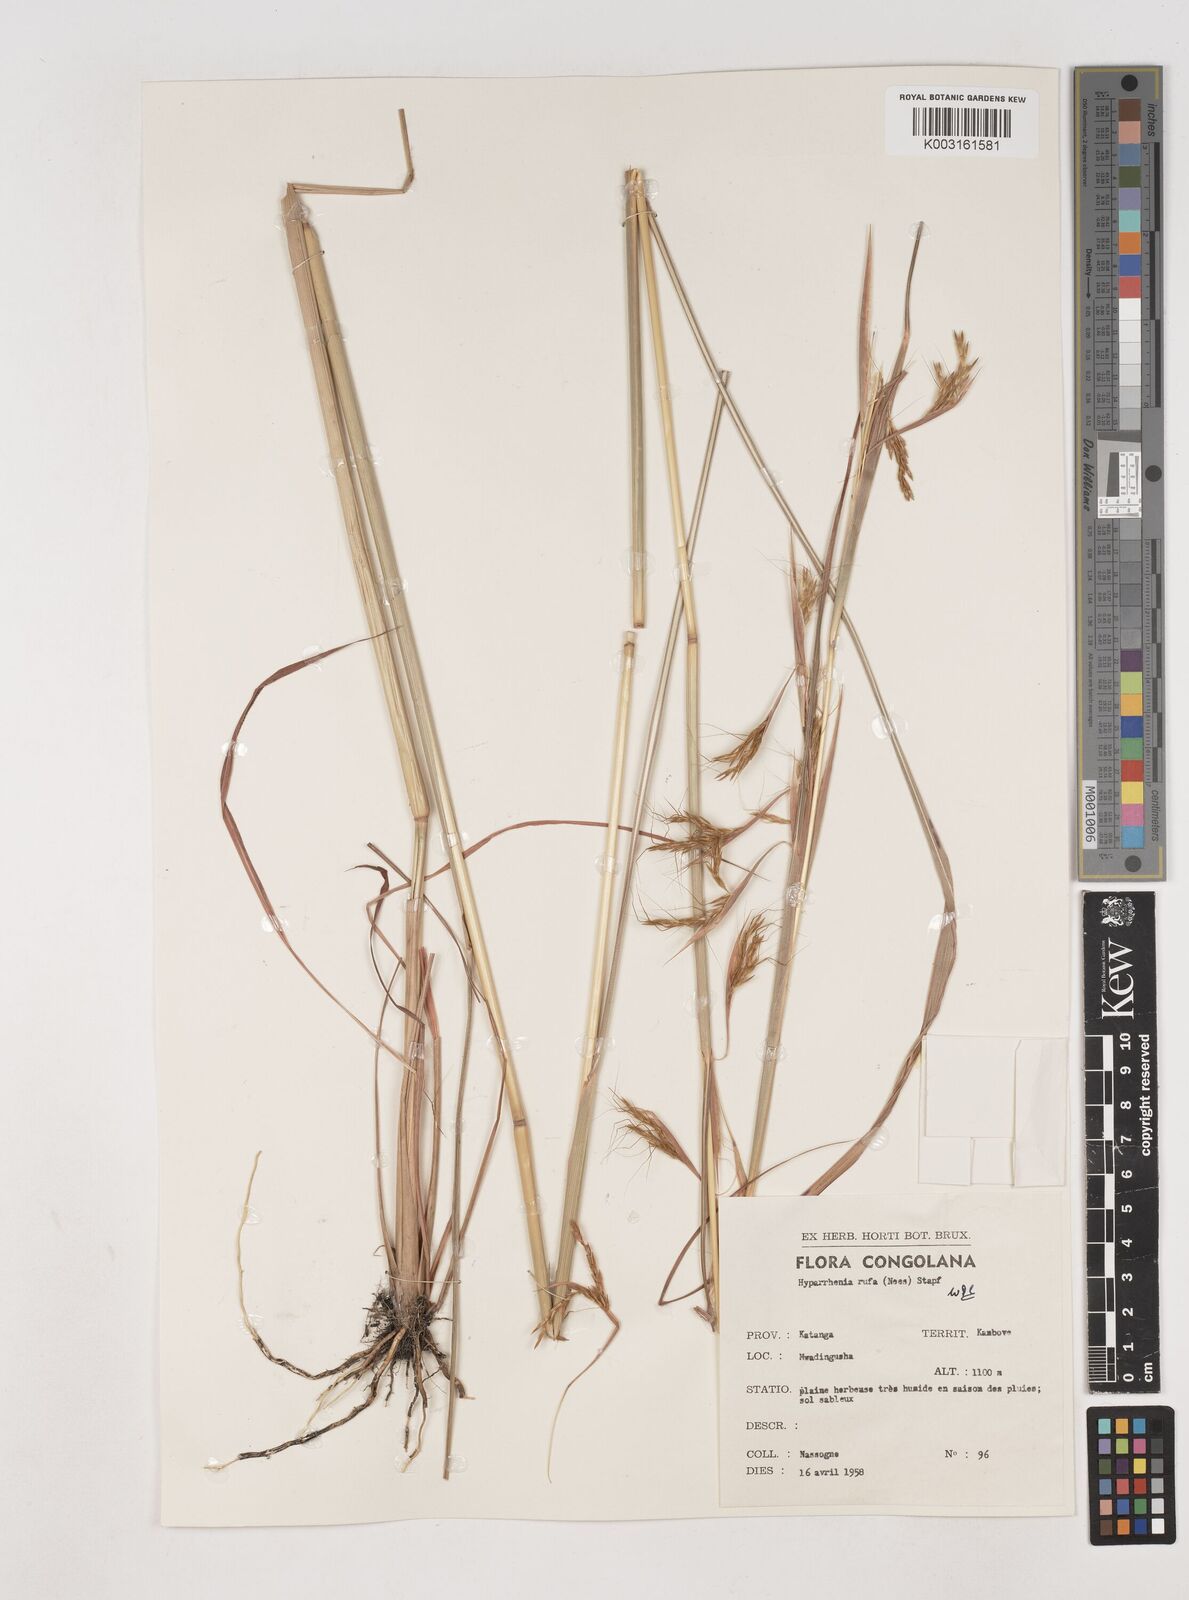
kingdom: Plantae
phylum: Tracheophyta
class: Liliopsida
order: Poales
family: Poaceae
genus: Hyparrhenia
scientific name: Hyparrhenia rufa
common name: Jaraguagrass
